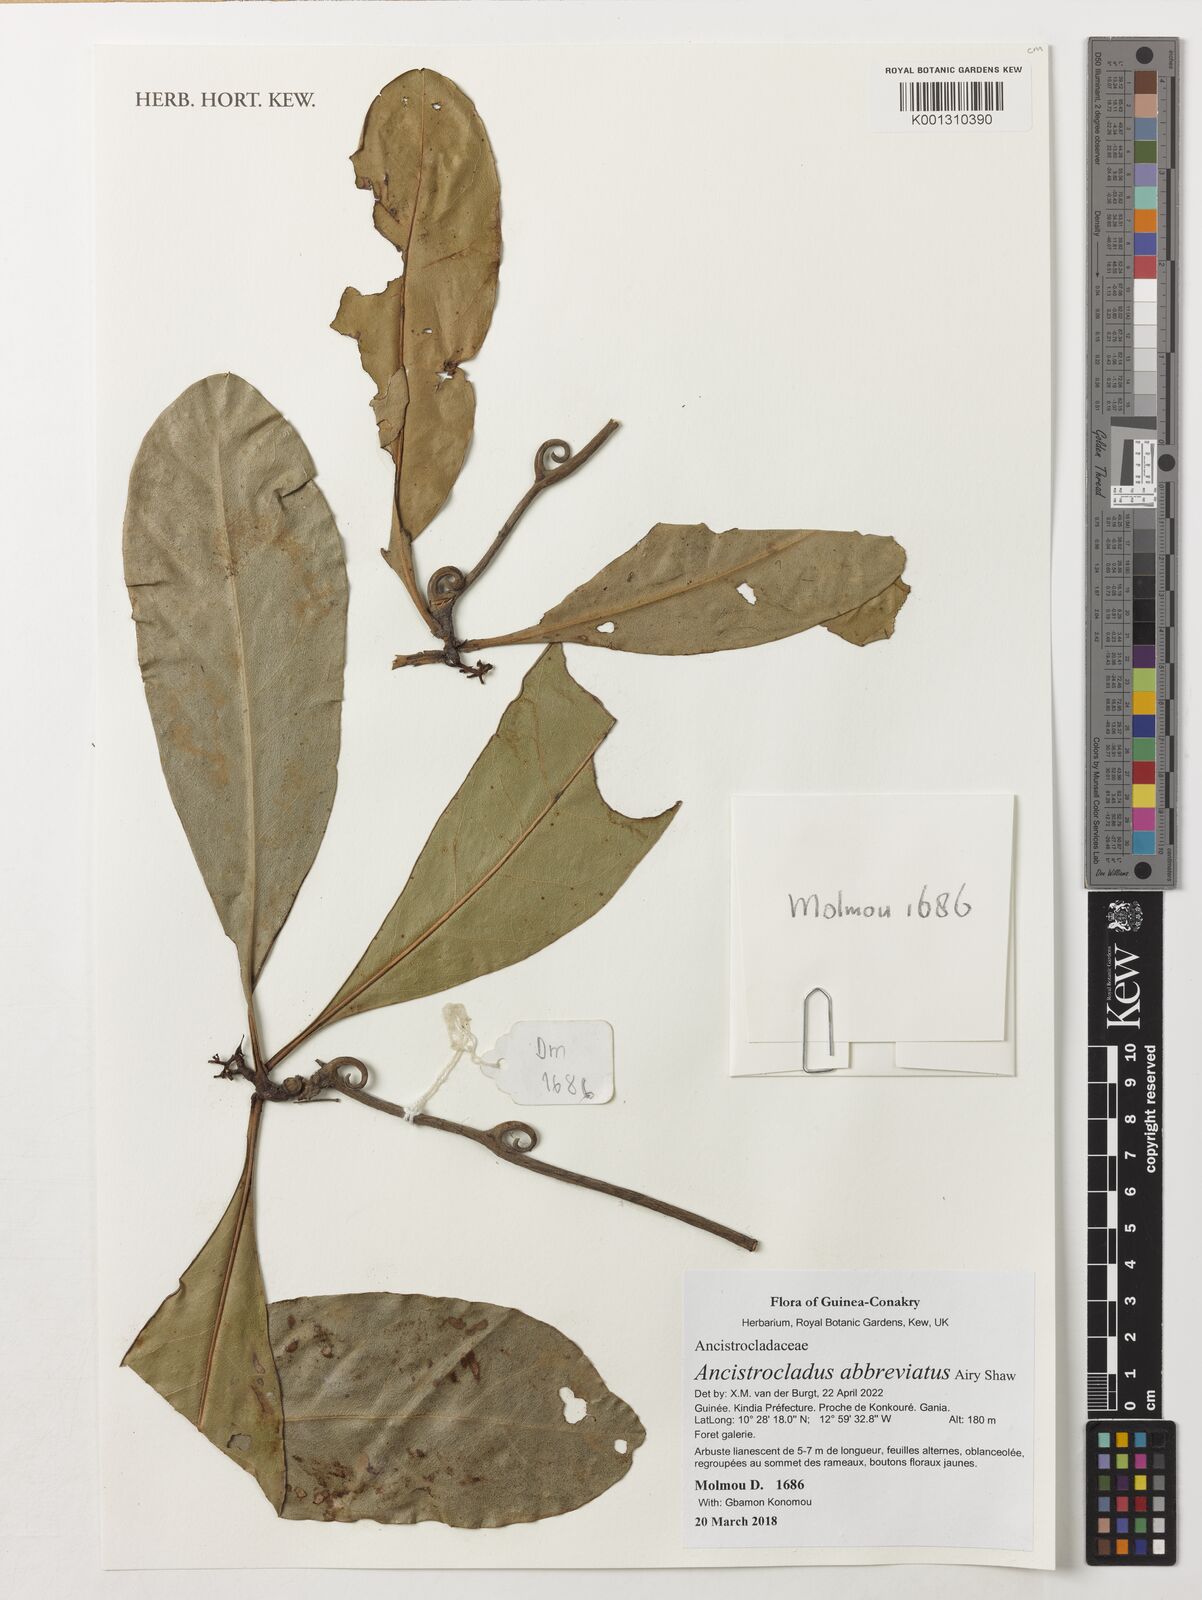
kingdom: Plantae
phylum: Tracheophyta
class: Magnoliopsida
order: Caryophyllales
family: Ancistrocladaceae
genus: Ancistrocladus
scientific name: Ancistrocladus abbreviatus
